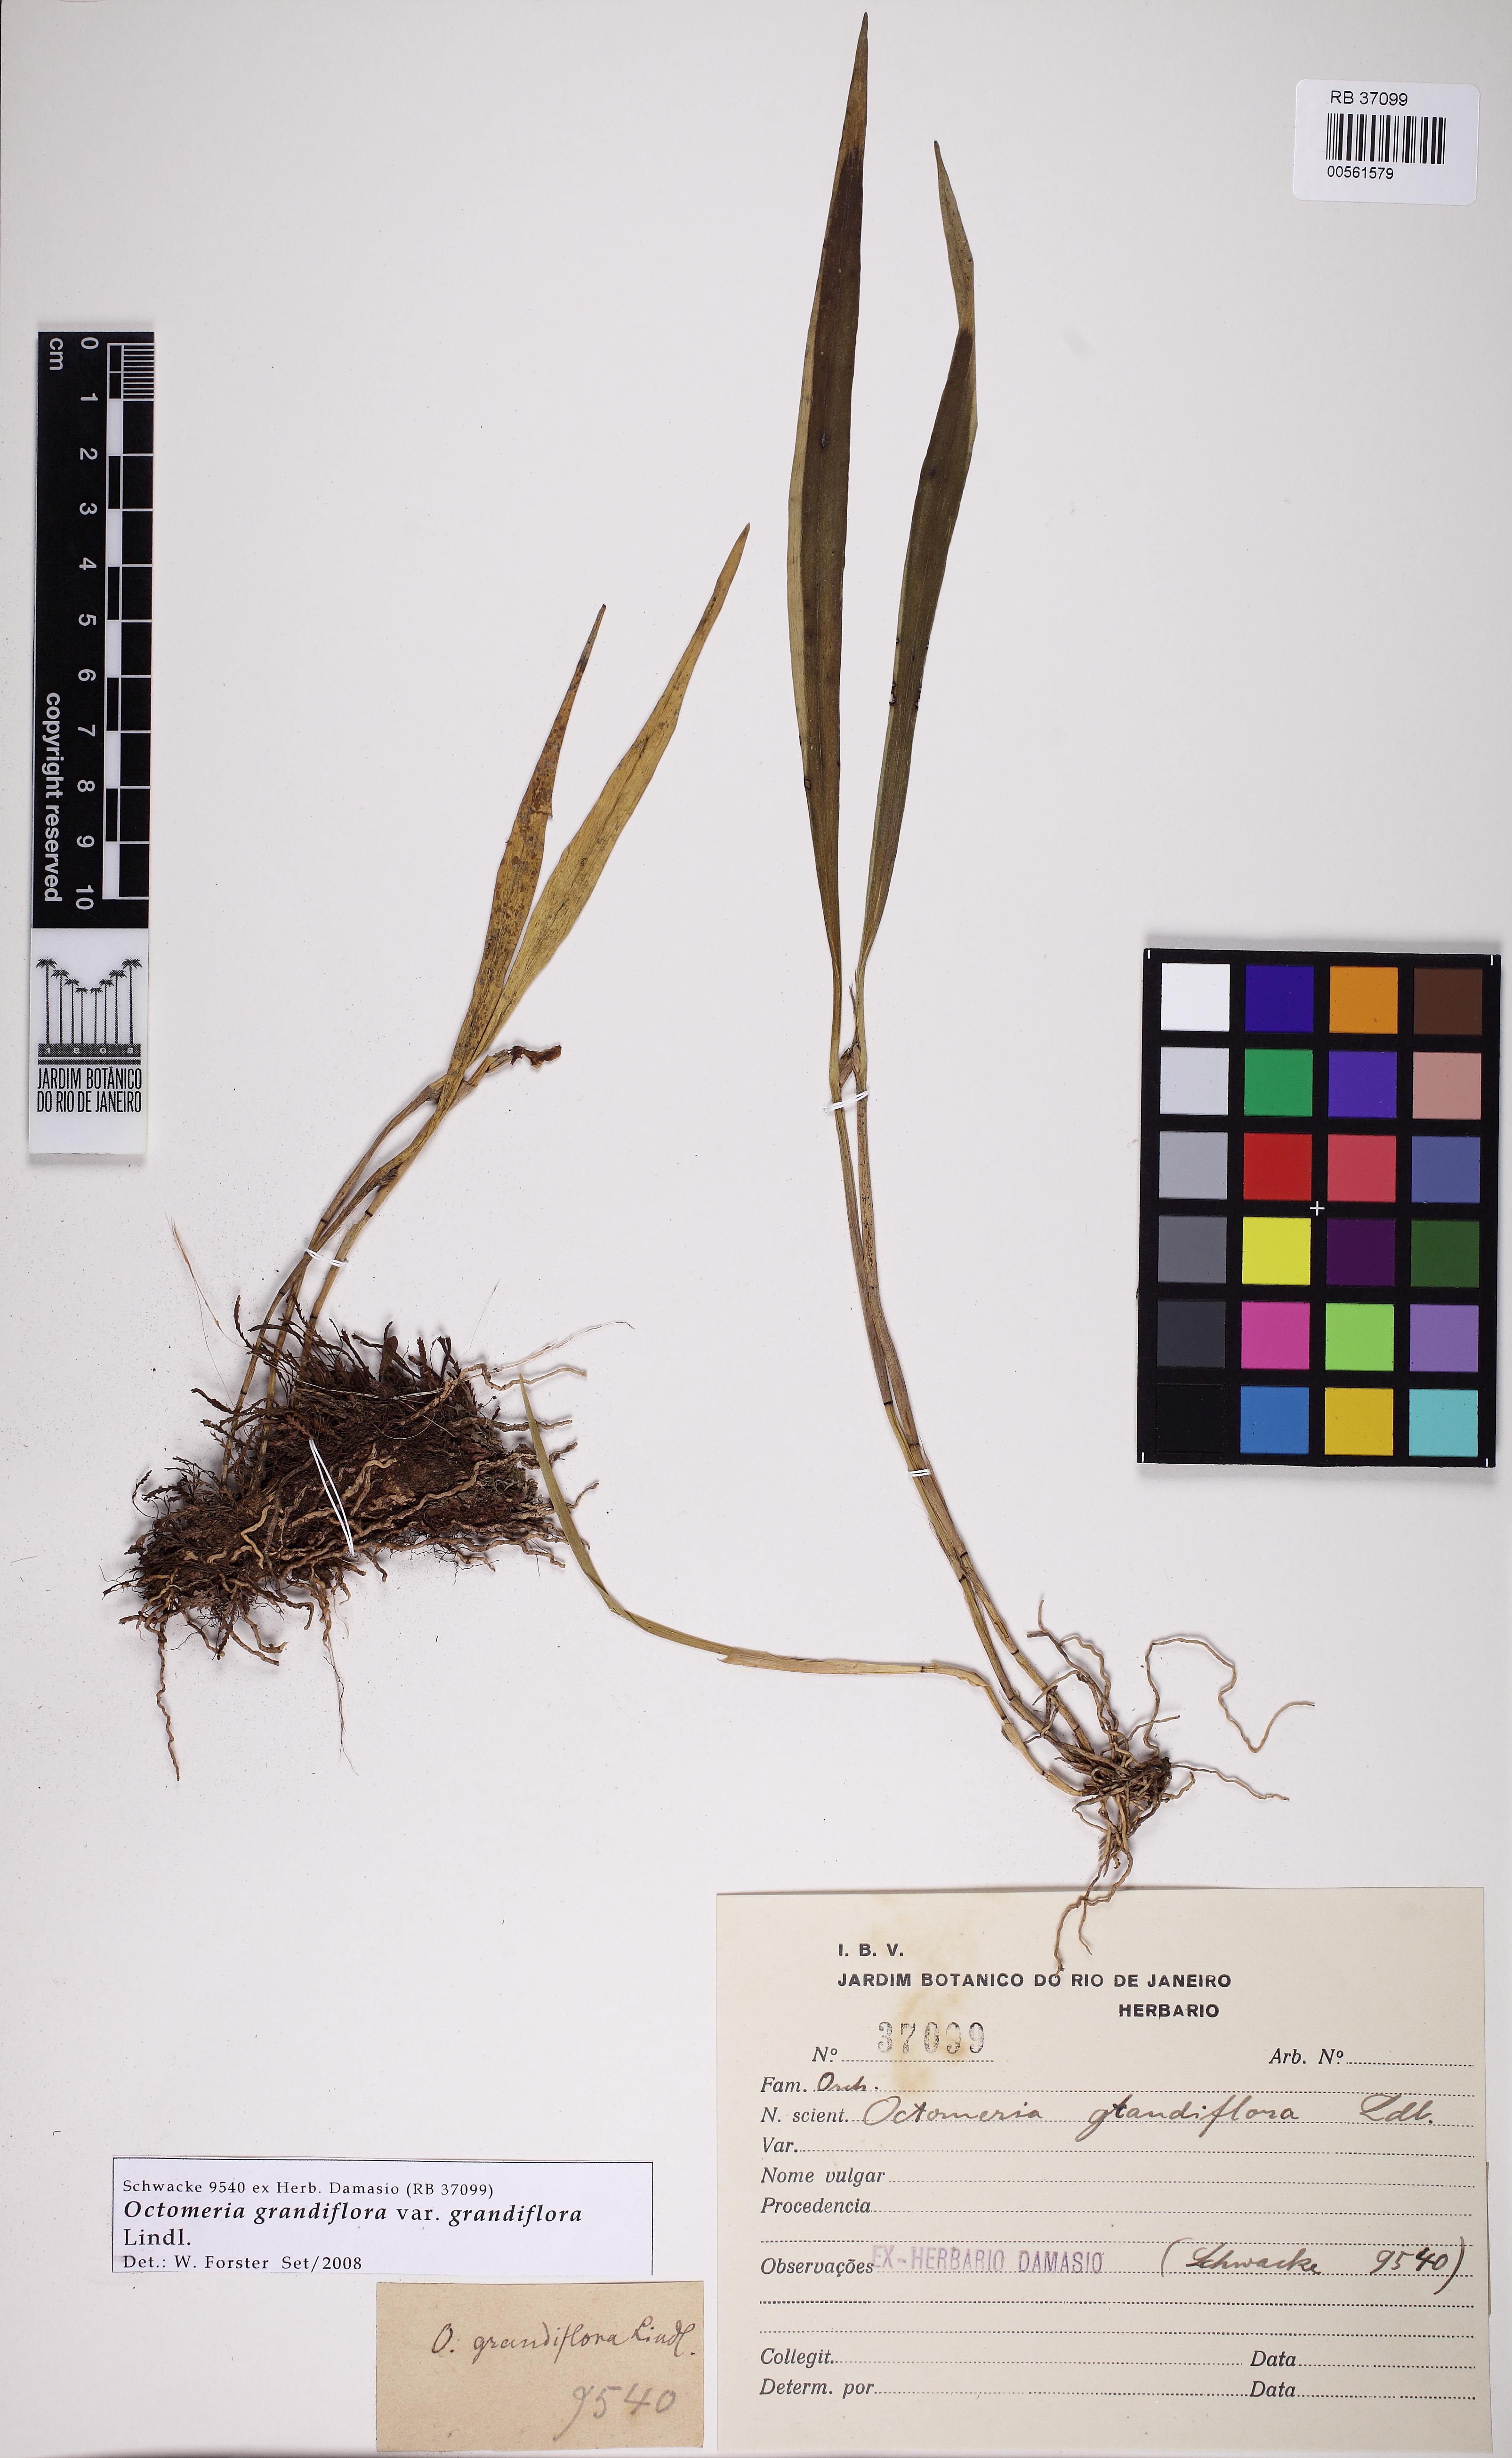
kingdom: Plantae
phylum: Tracheophyta
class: Liliopsida
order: Asparagales
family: Orchidaceae
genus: Octomeria
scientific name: Octomeria grandiflora
